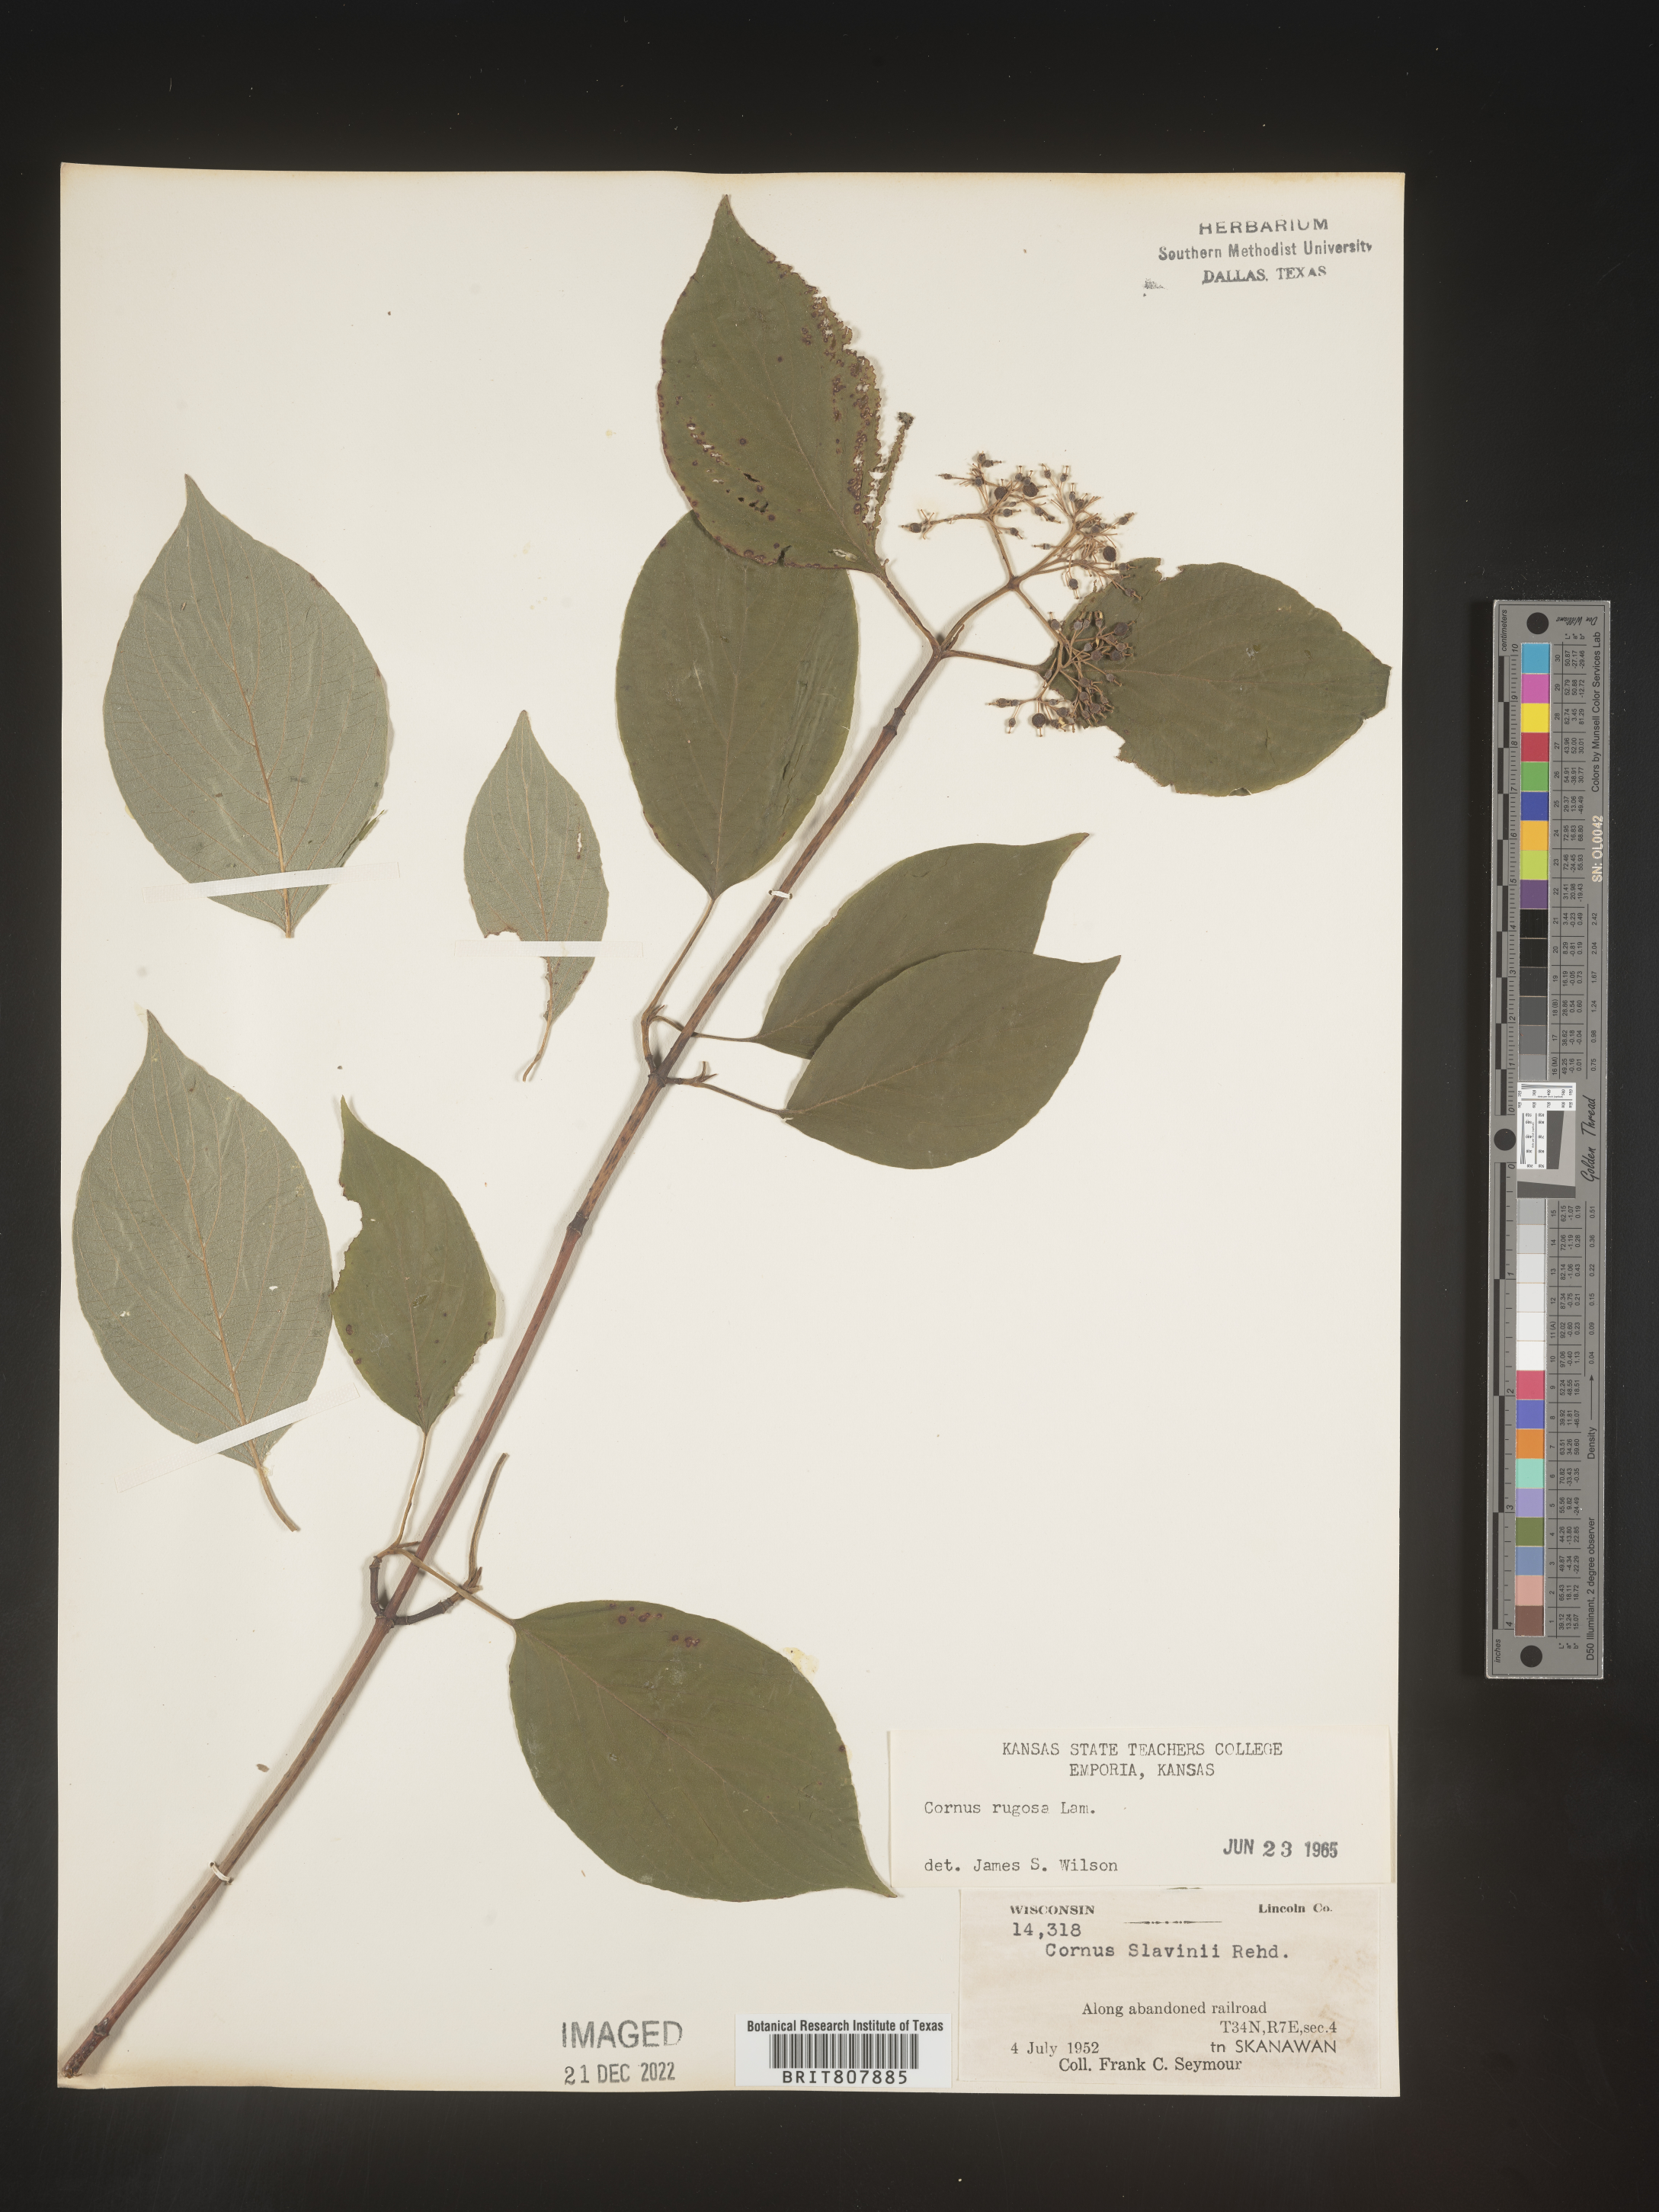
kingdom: Plantae
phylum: Tracheophyta
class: Magnoliopsida
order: Cornales
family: Cornaceae
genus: Cornus
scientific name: Cornus rugosa
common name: Round-leaf dogwood
